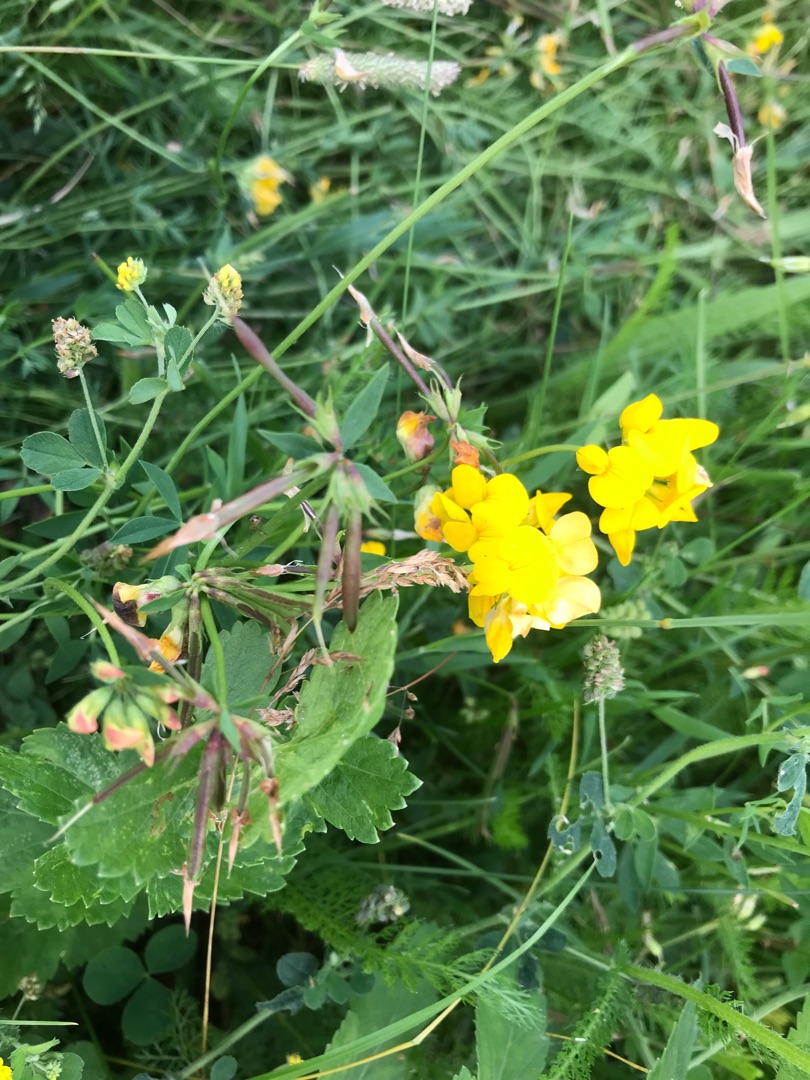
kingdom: Plantae
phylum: Tracheophyta
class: Magnoliopsida
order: Fabales
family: Fabaceae
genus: Lotus
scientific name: Lotus corniculatus
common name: Almindelig kællingetand
